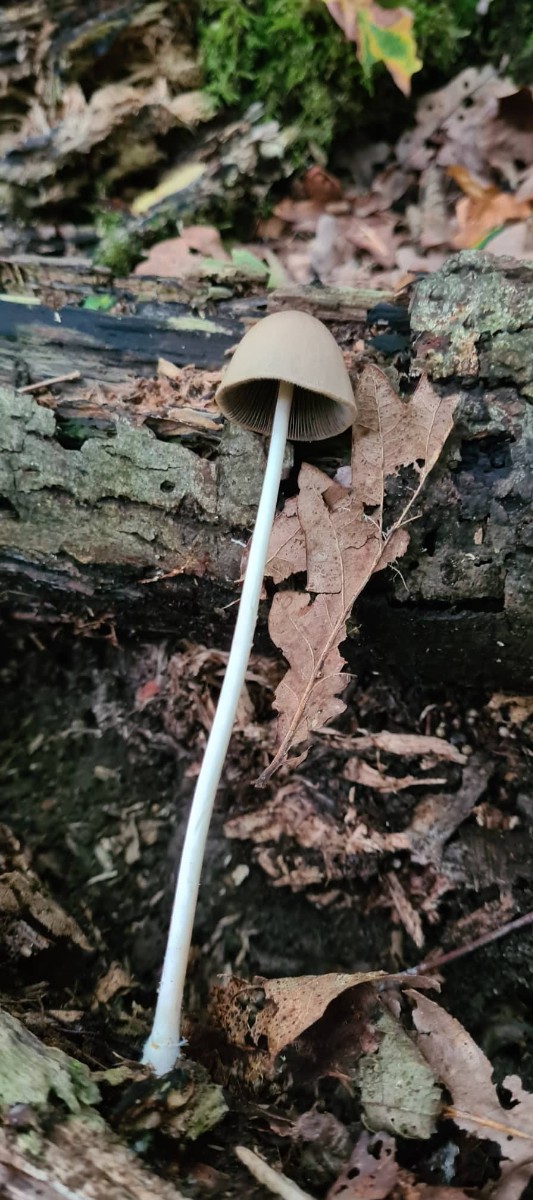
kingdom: Fungi
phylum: Basidiomycota
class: Agaricomycetes
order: Agaricales
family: Psathyrellaceae
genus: Parasola
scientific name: Parasola conopilea
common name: kegle-hjulhat
